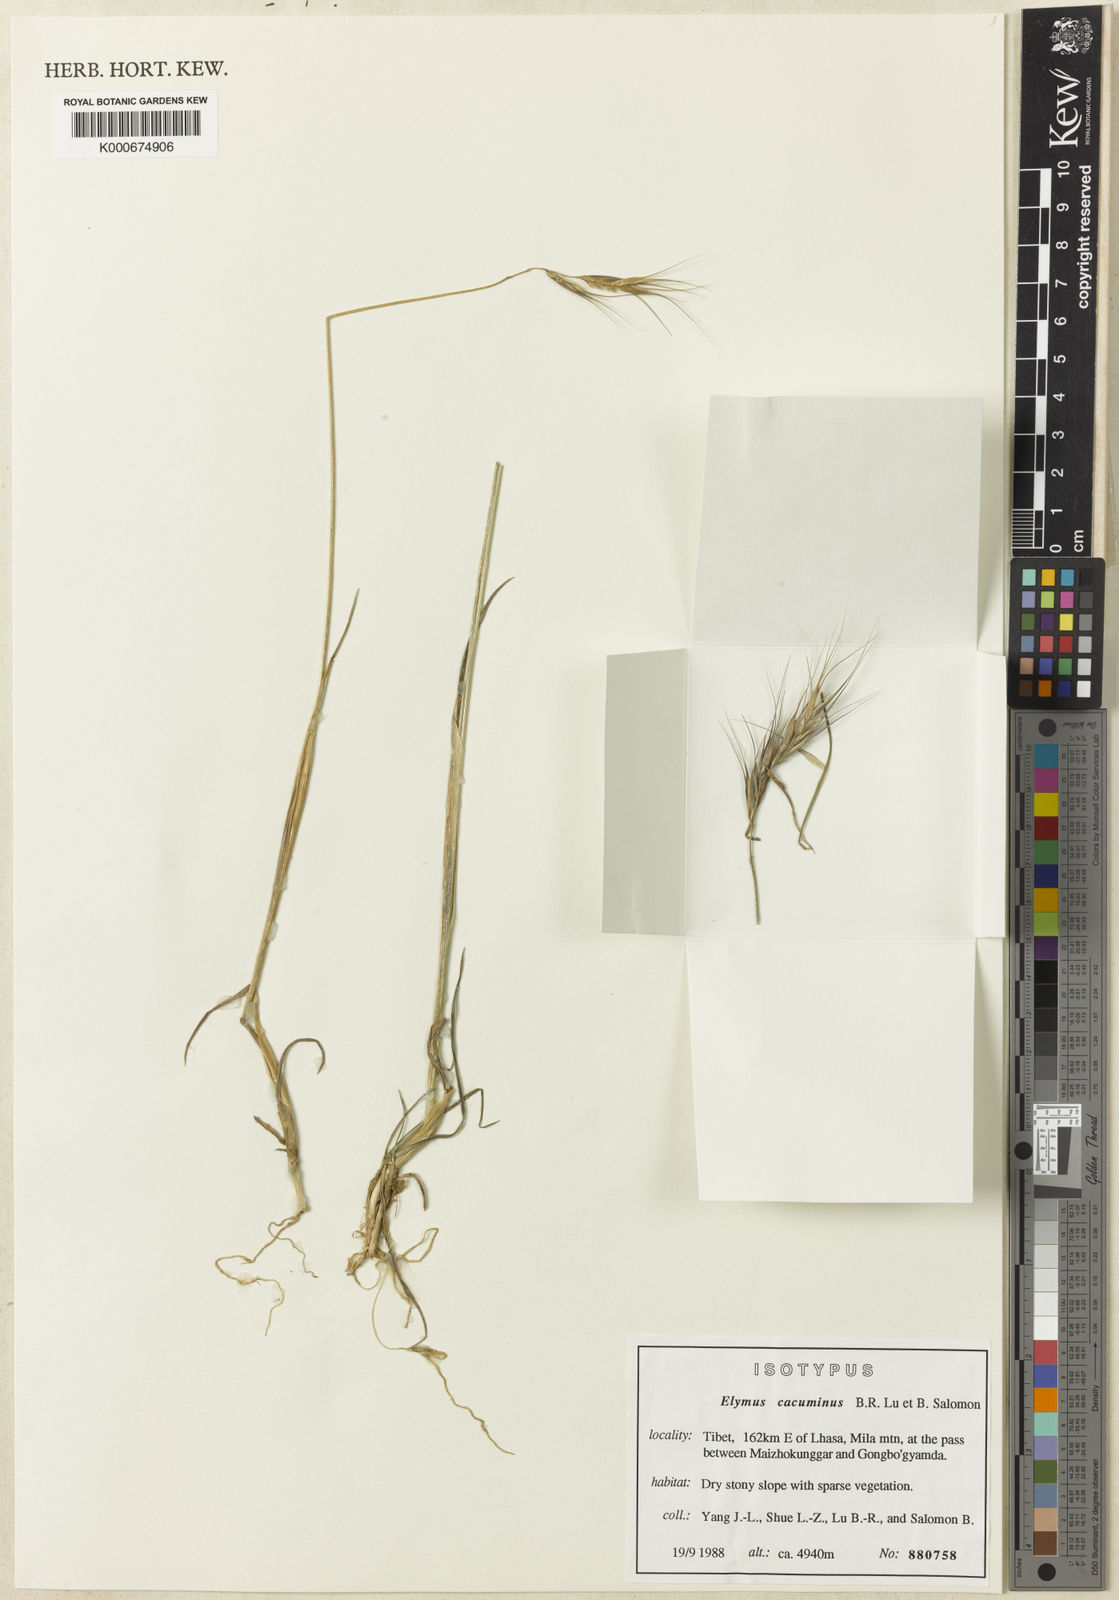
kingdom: Plantae
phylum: Tracheophyta
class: Liliopsida
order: Poales
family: Poaceae
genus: Elymus
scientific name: Elymus cacuminis
